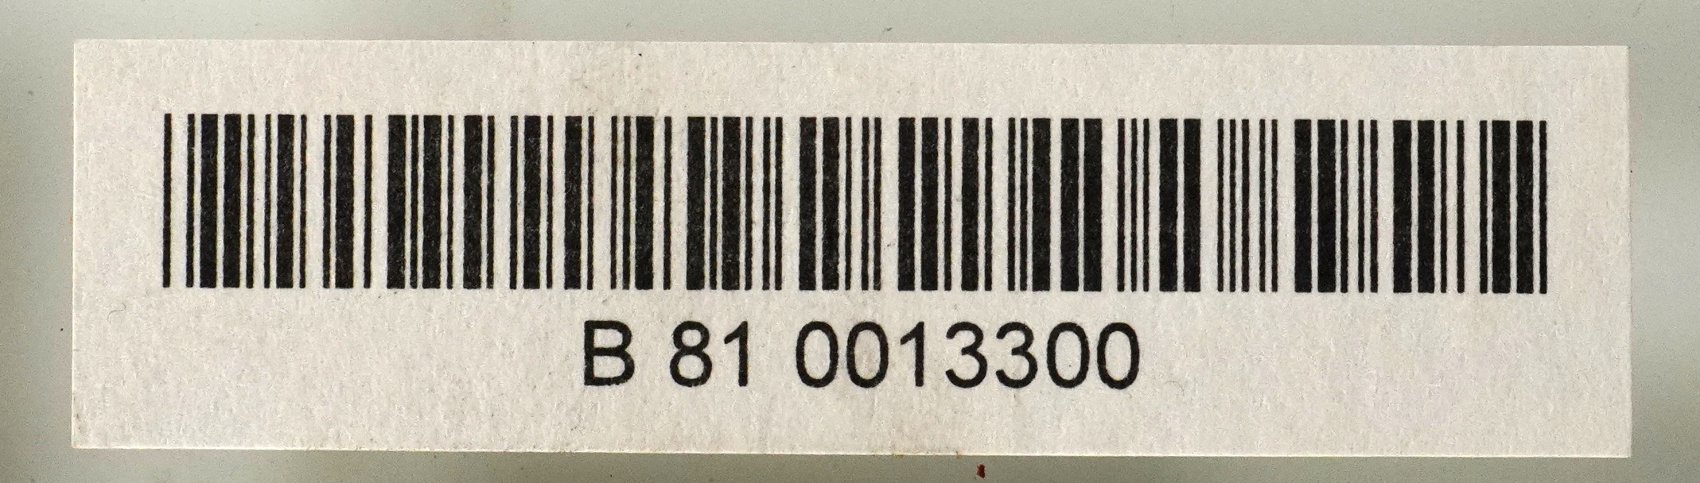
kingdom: Plantae
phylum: Tracheophyta
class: Magnoliopsida
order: Rosales
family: Moraceae
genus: Artocarpus
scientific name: Artocarpus altilis
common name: Breadfruit
